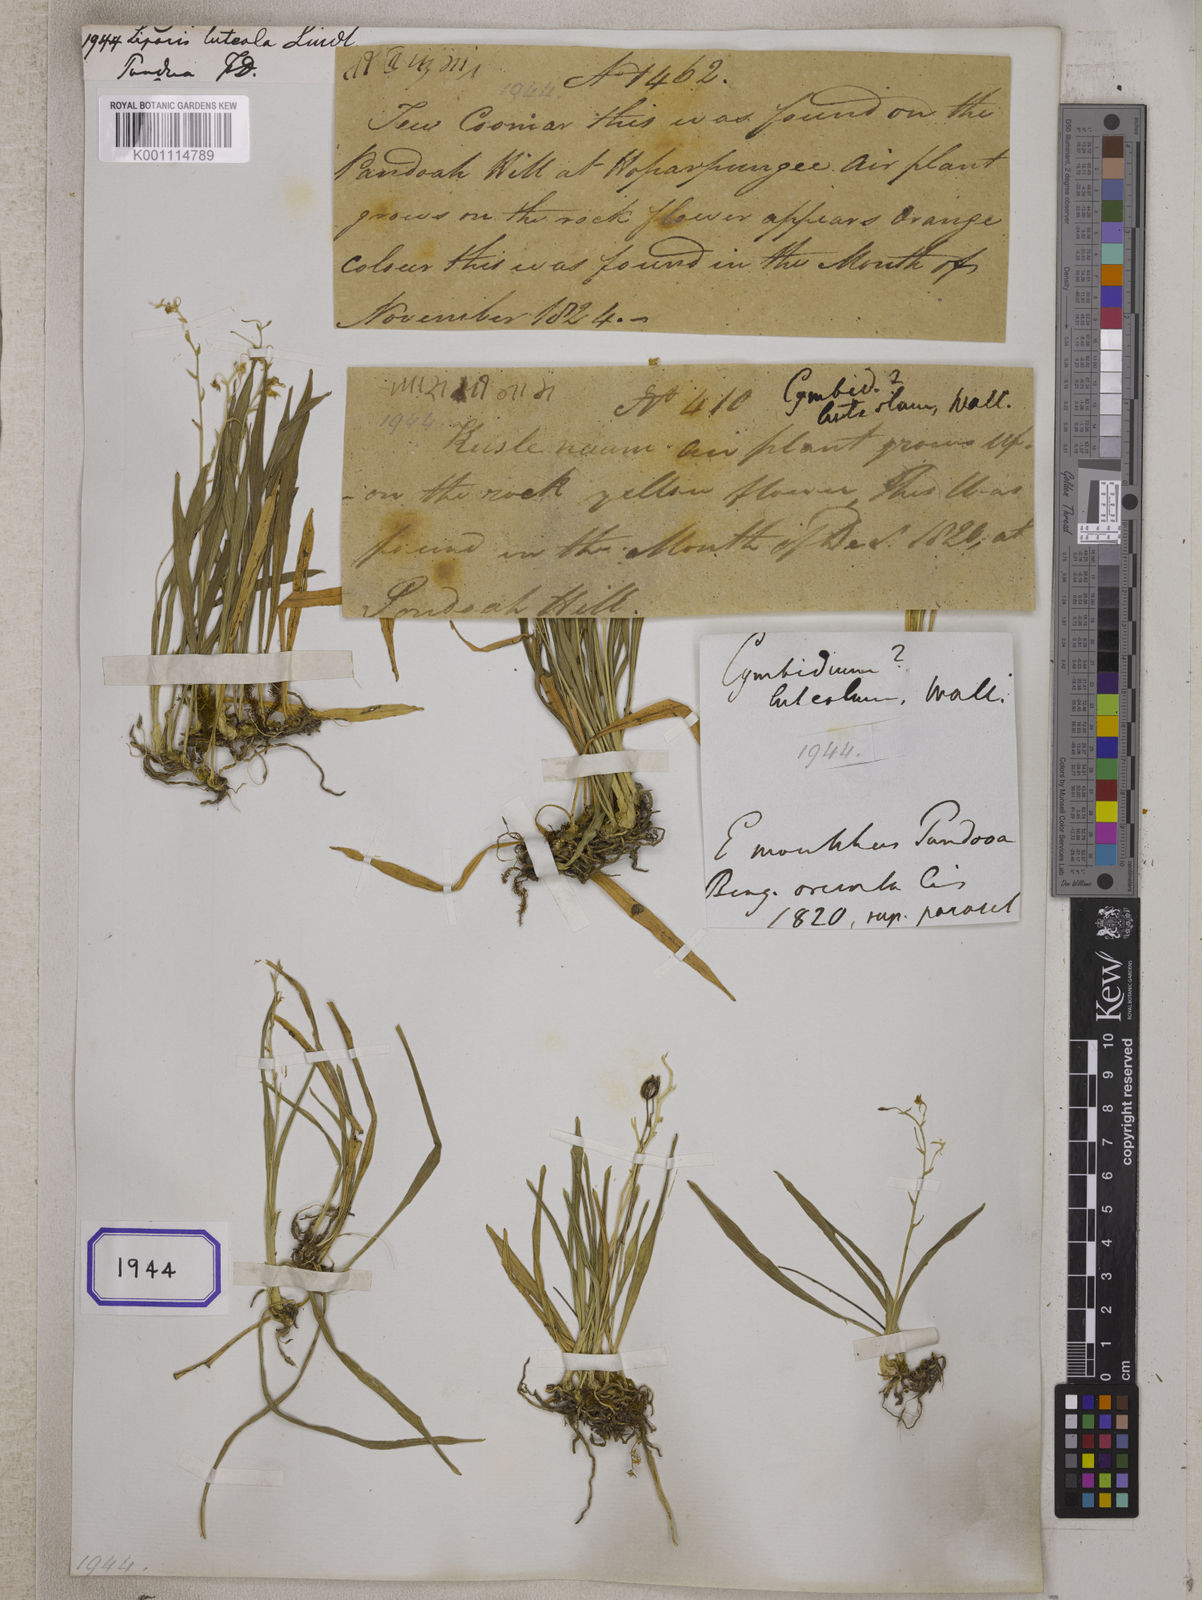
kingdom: Plantae
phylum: Tracheophyta
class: Liliopsida
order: Asparagales
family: Orchidaceae
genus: Liparis
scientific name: Liparis luteola
